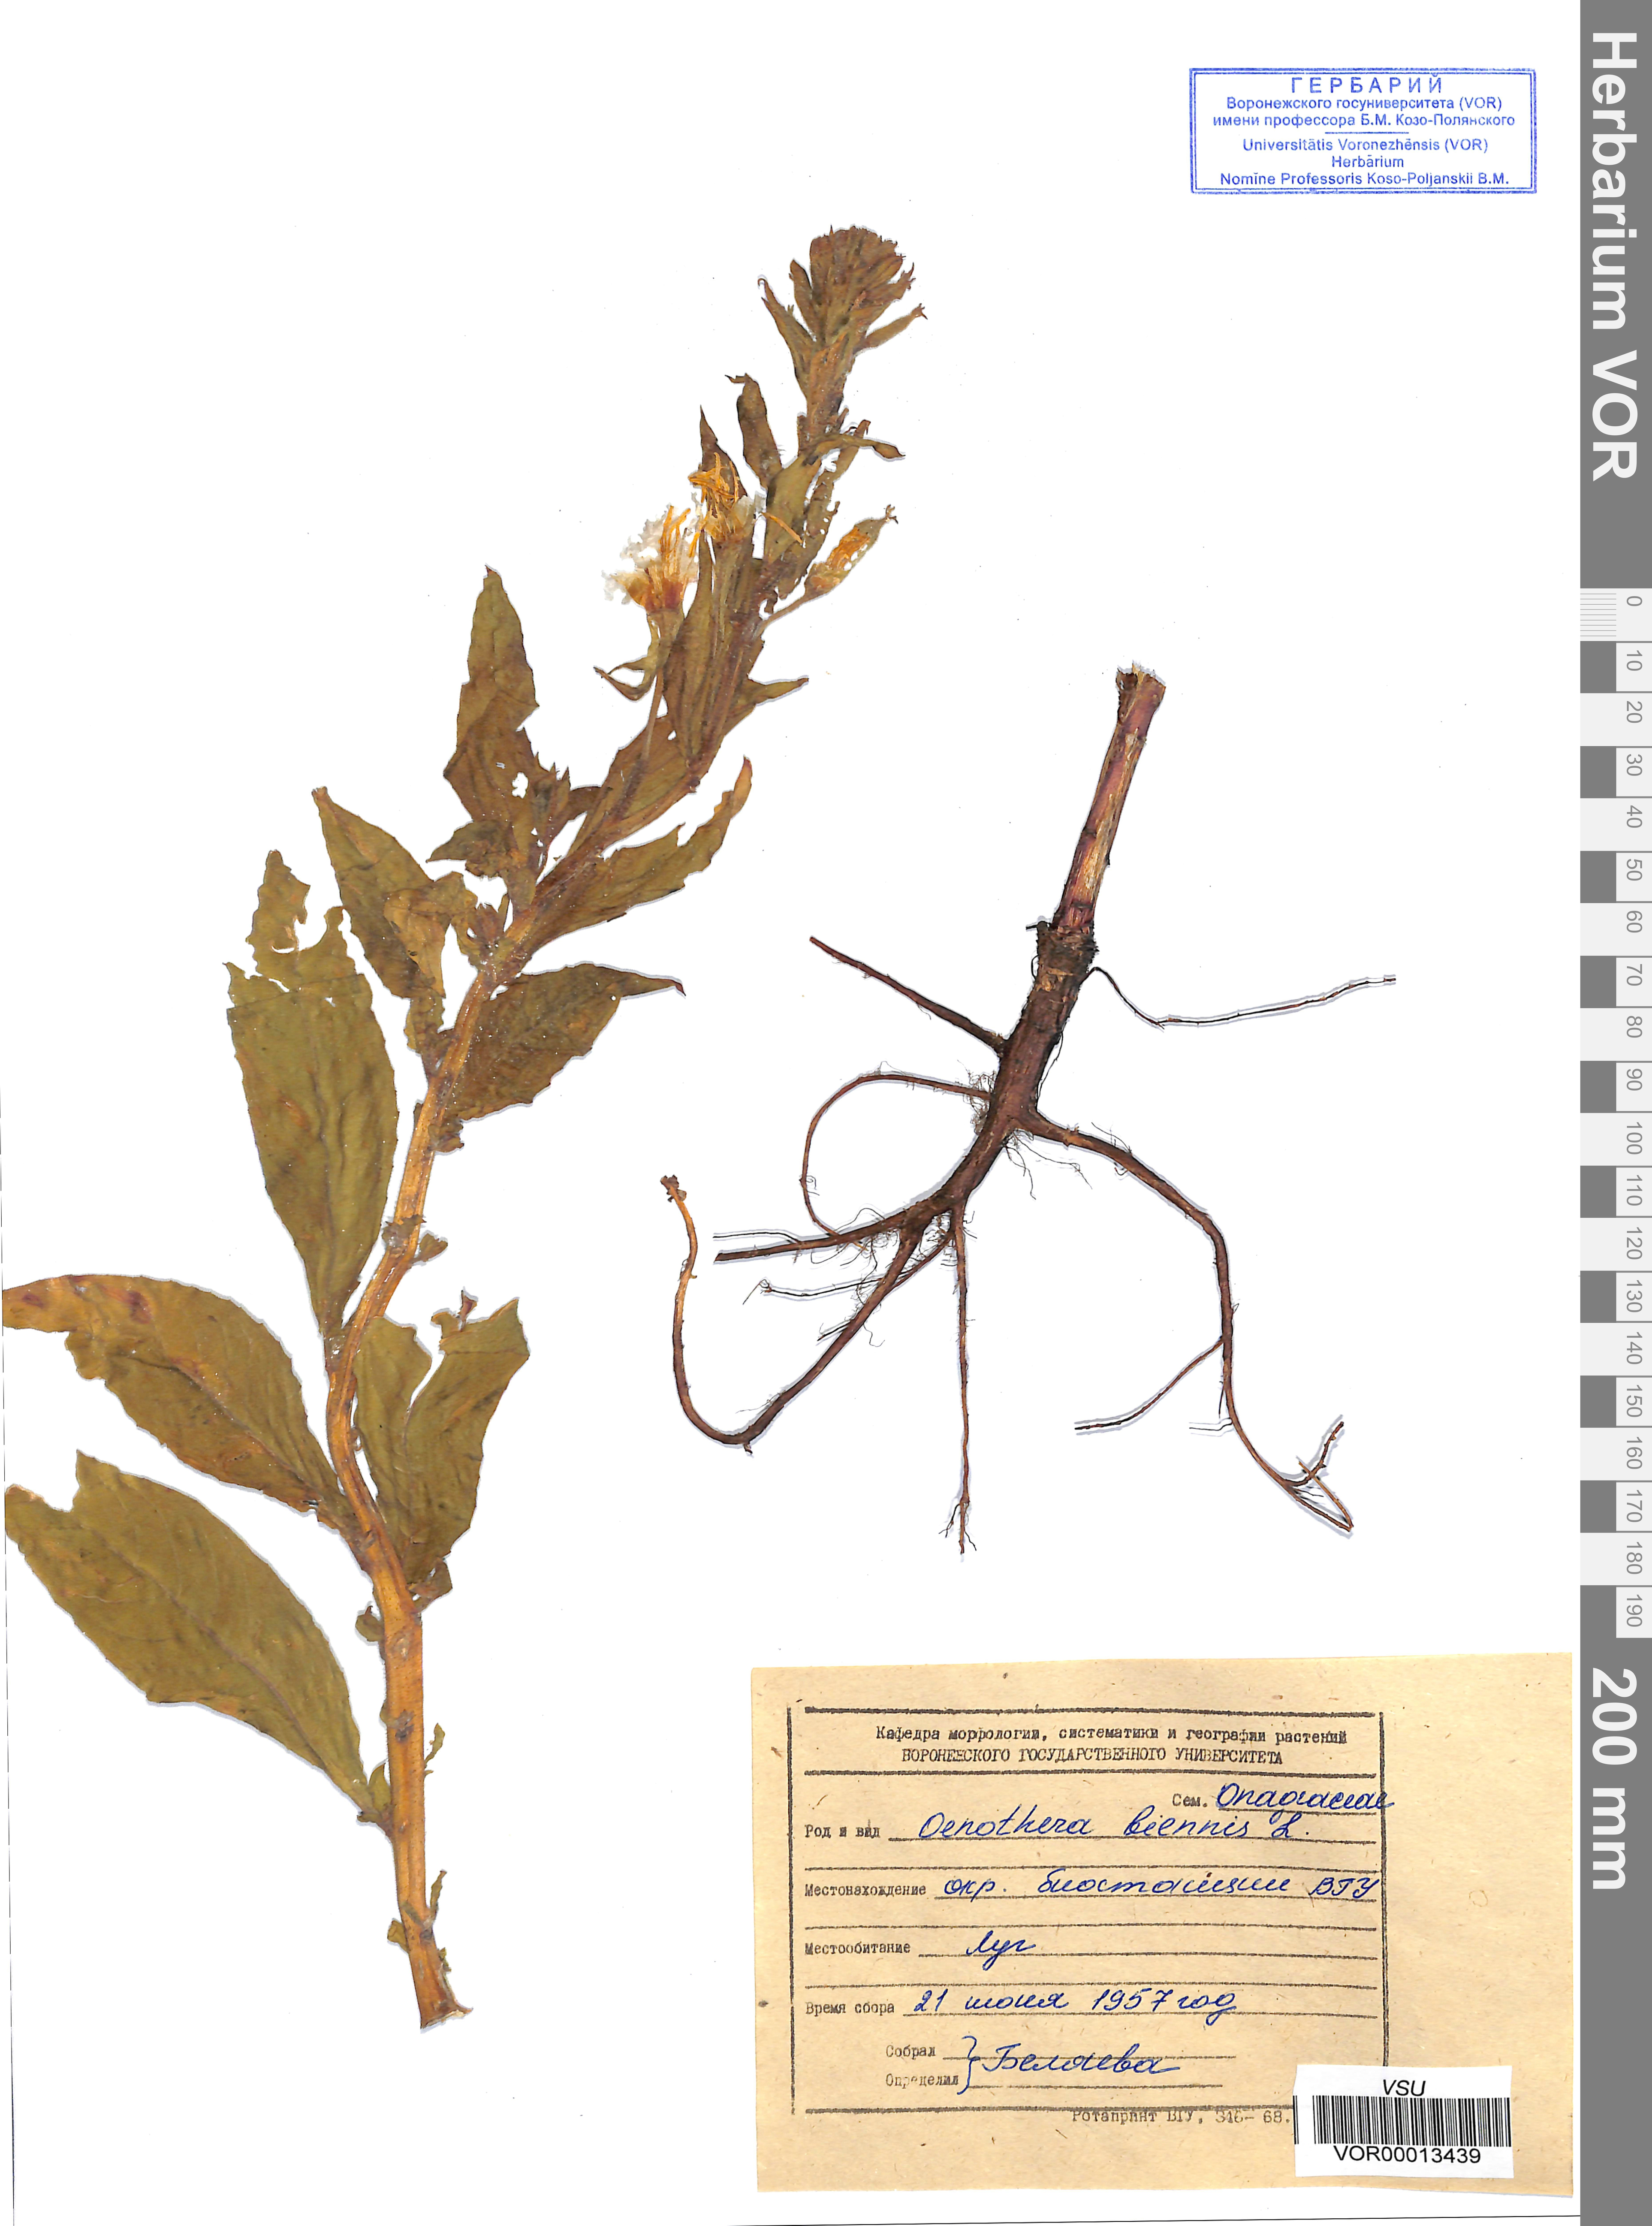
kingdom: Plantae
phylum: Tracheophyta
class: Magnoliopsida
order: Myrtales
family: Onagraceae
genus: Oenothera
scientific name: Oenothera biennis
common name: Common evening-primrose
